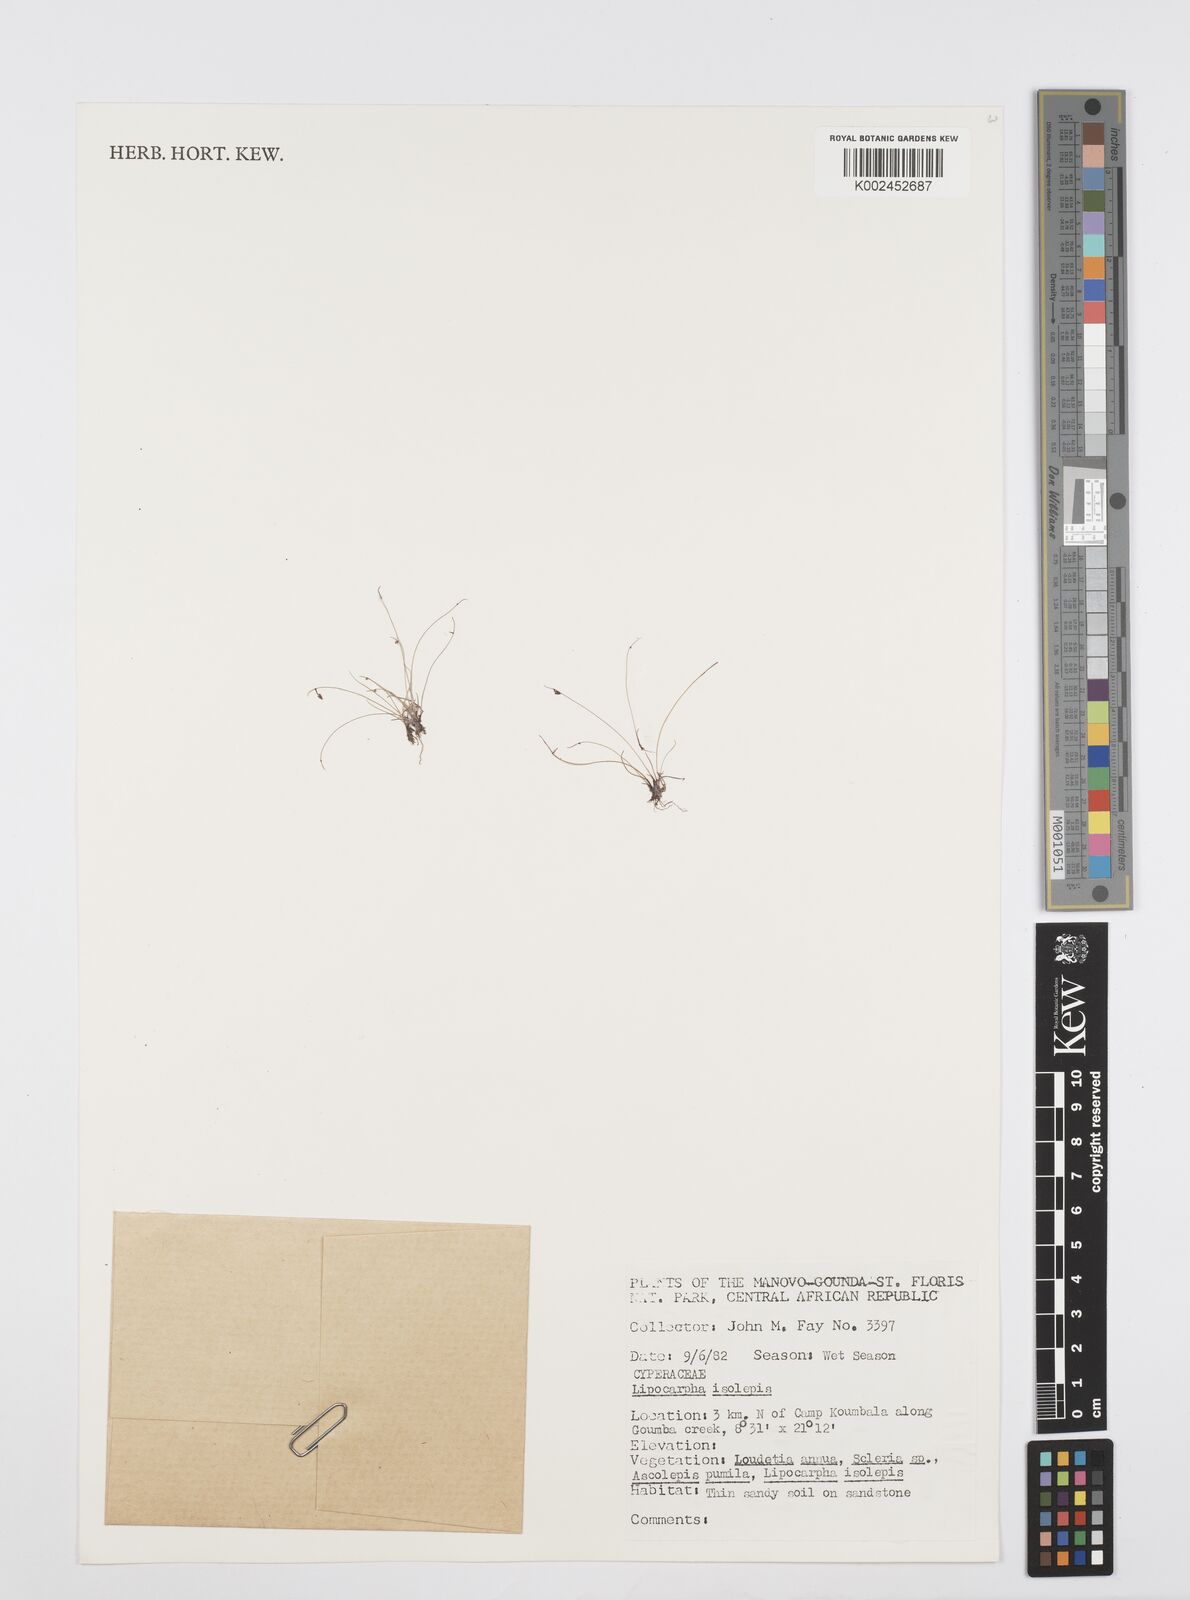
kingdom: Plantae
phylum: Tracheophyta
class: Liliopsida
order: Poales
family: Cyperaceae
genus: Cyperus
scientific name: Cyperus hemisphaericus
